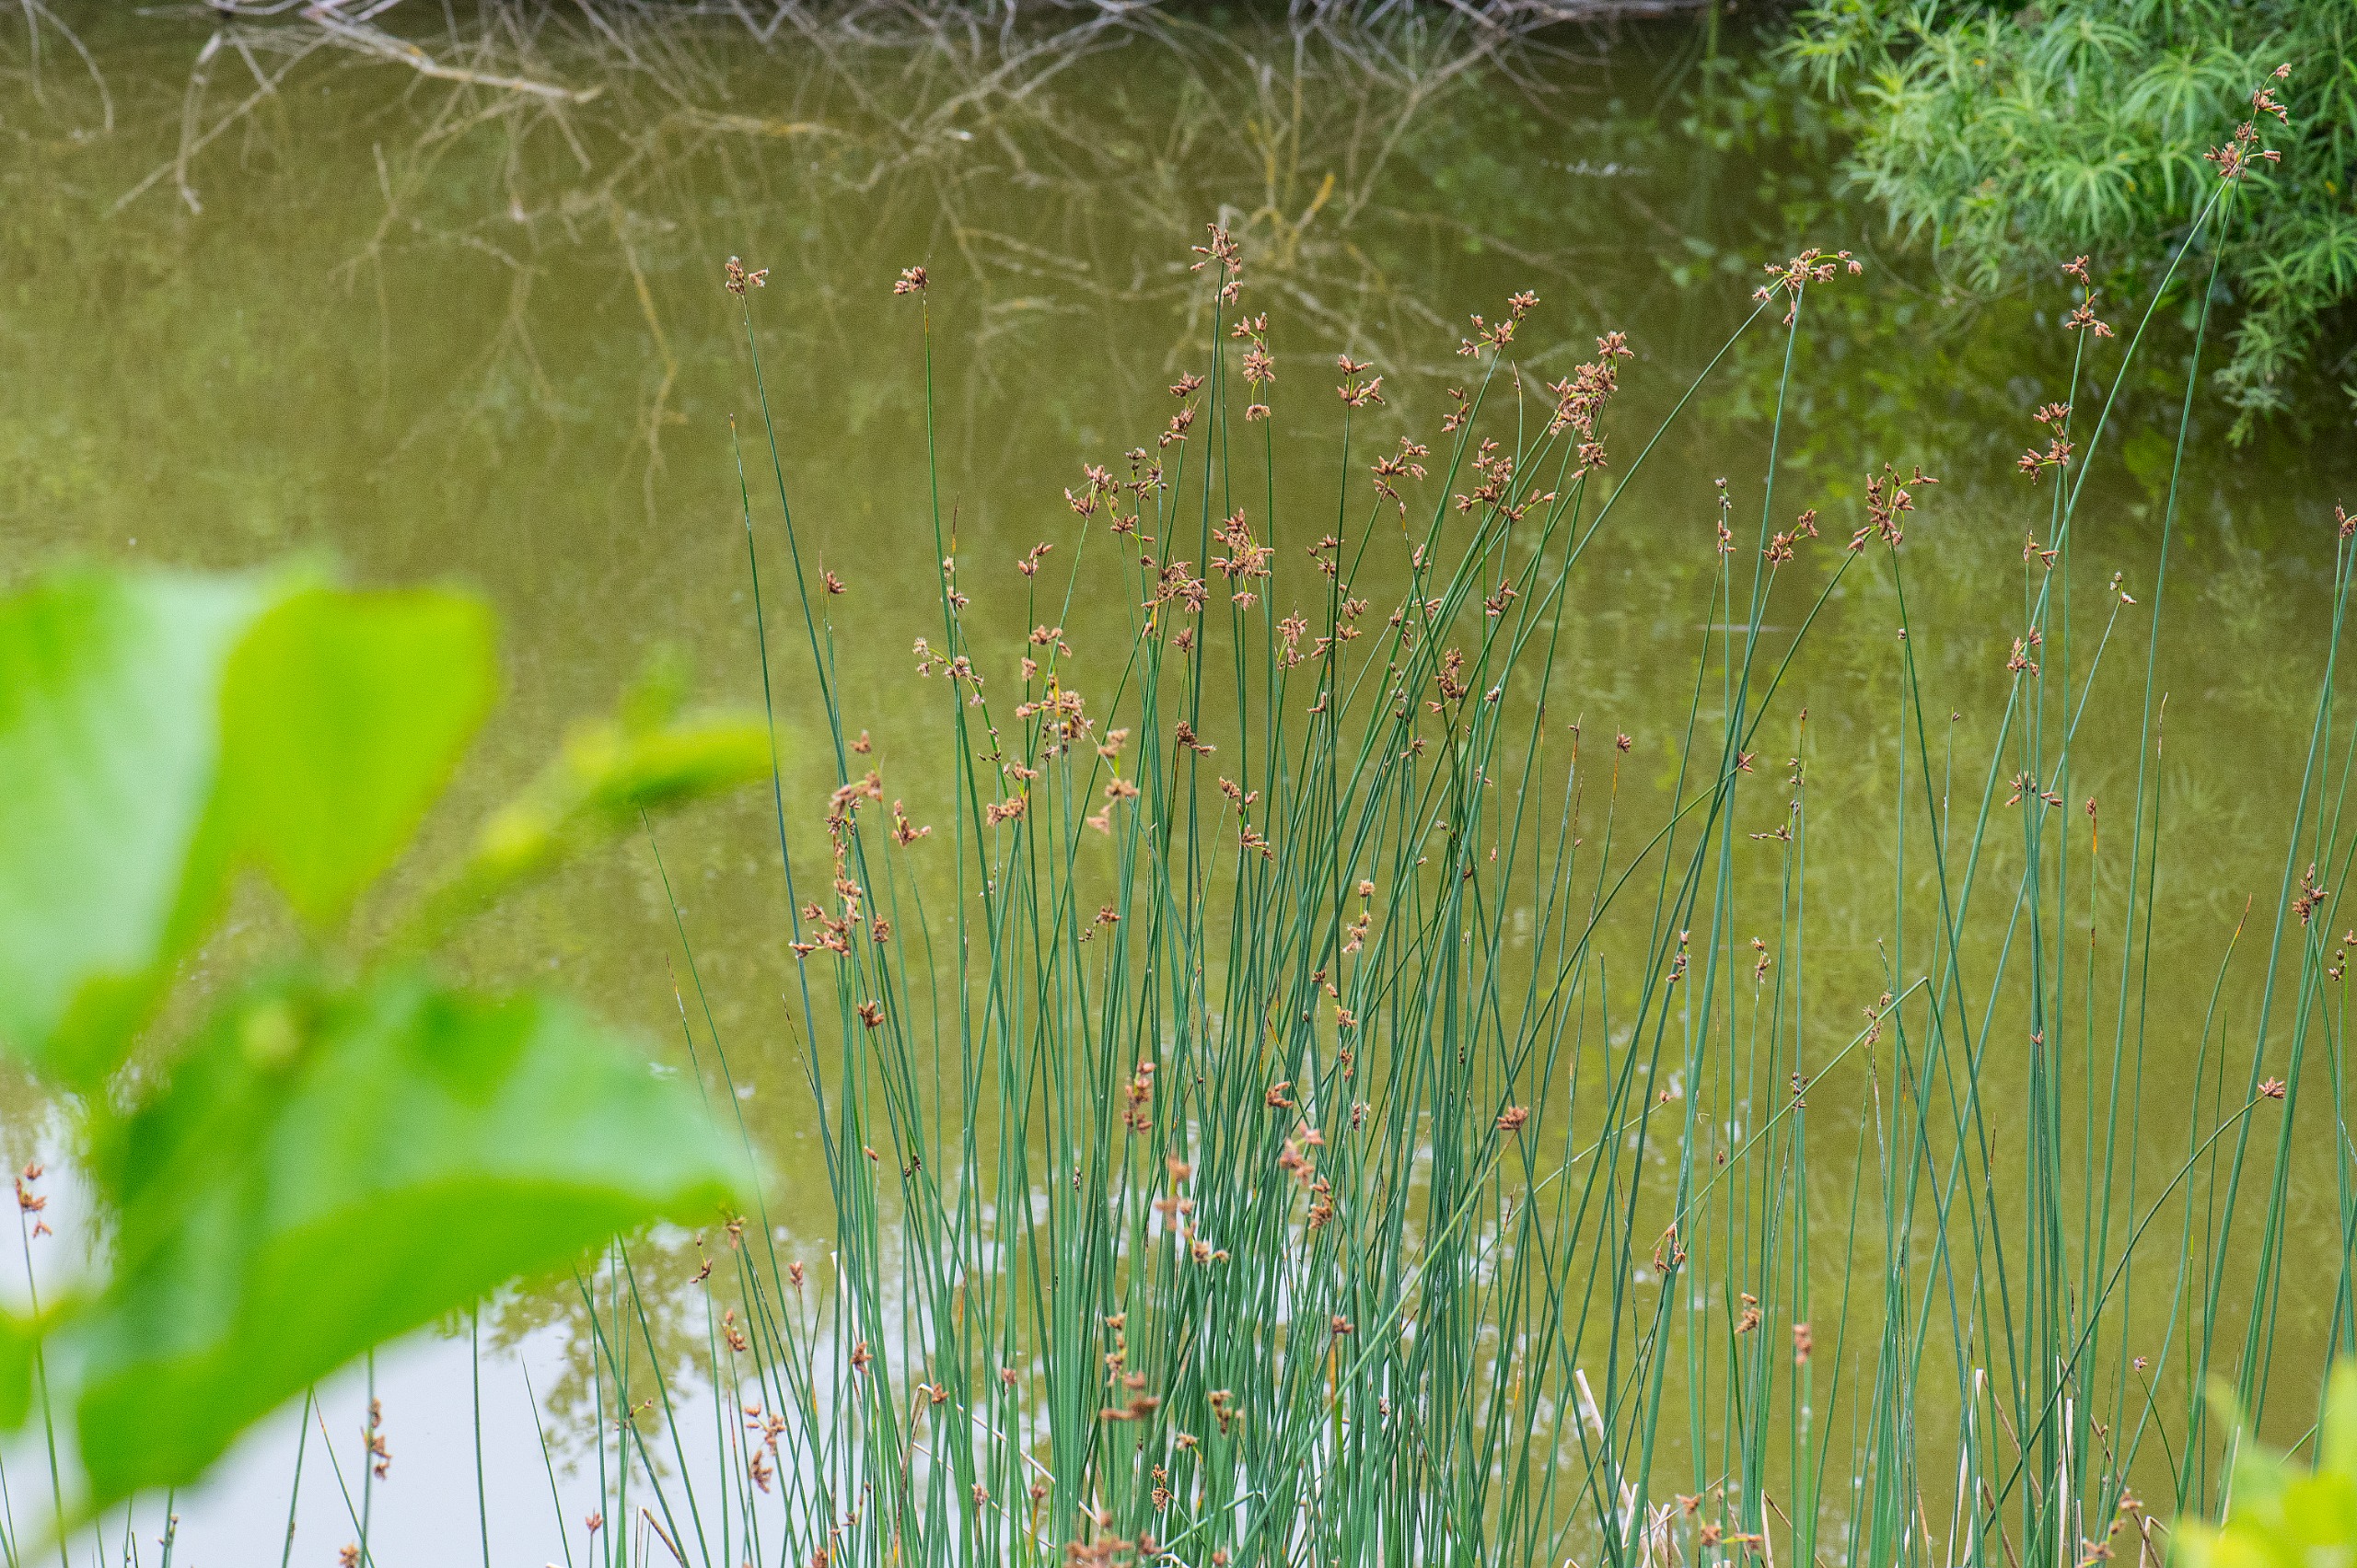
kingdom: Plantae
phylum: Tracheophyta
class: Liliopsida
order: Poales
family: Cyperaceae
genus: Schoenoplectus
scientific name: Schoenoplectus tabernaemontani
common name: Blågrøn kogleaks
